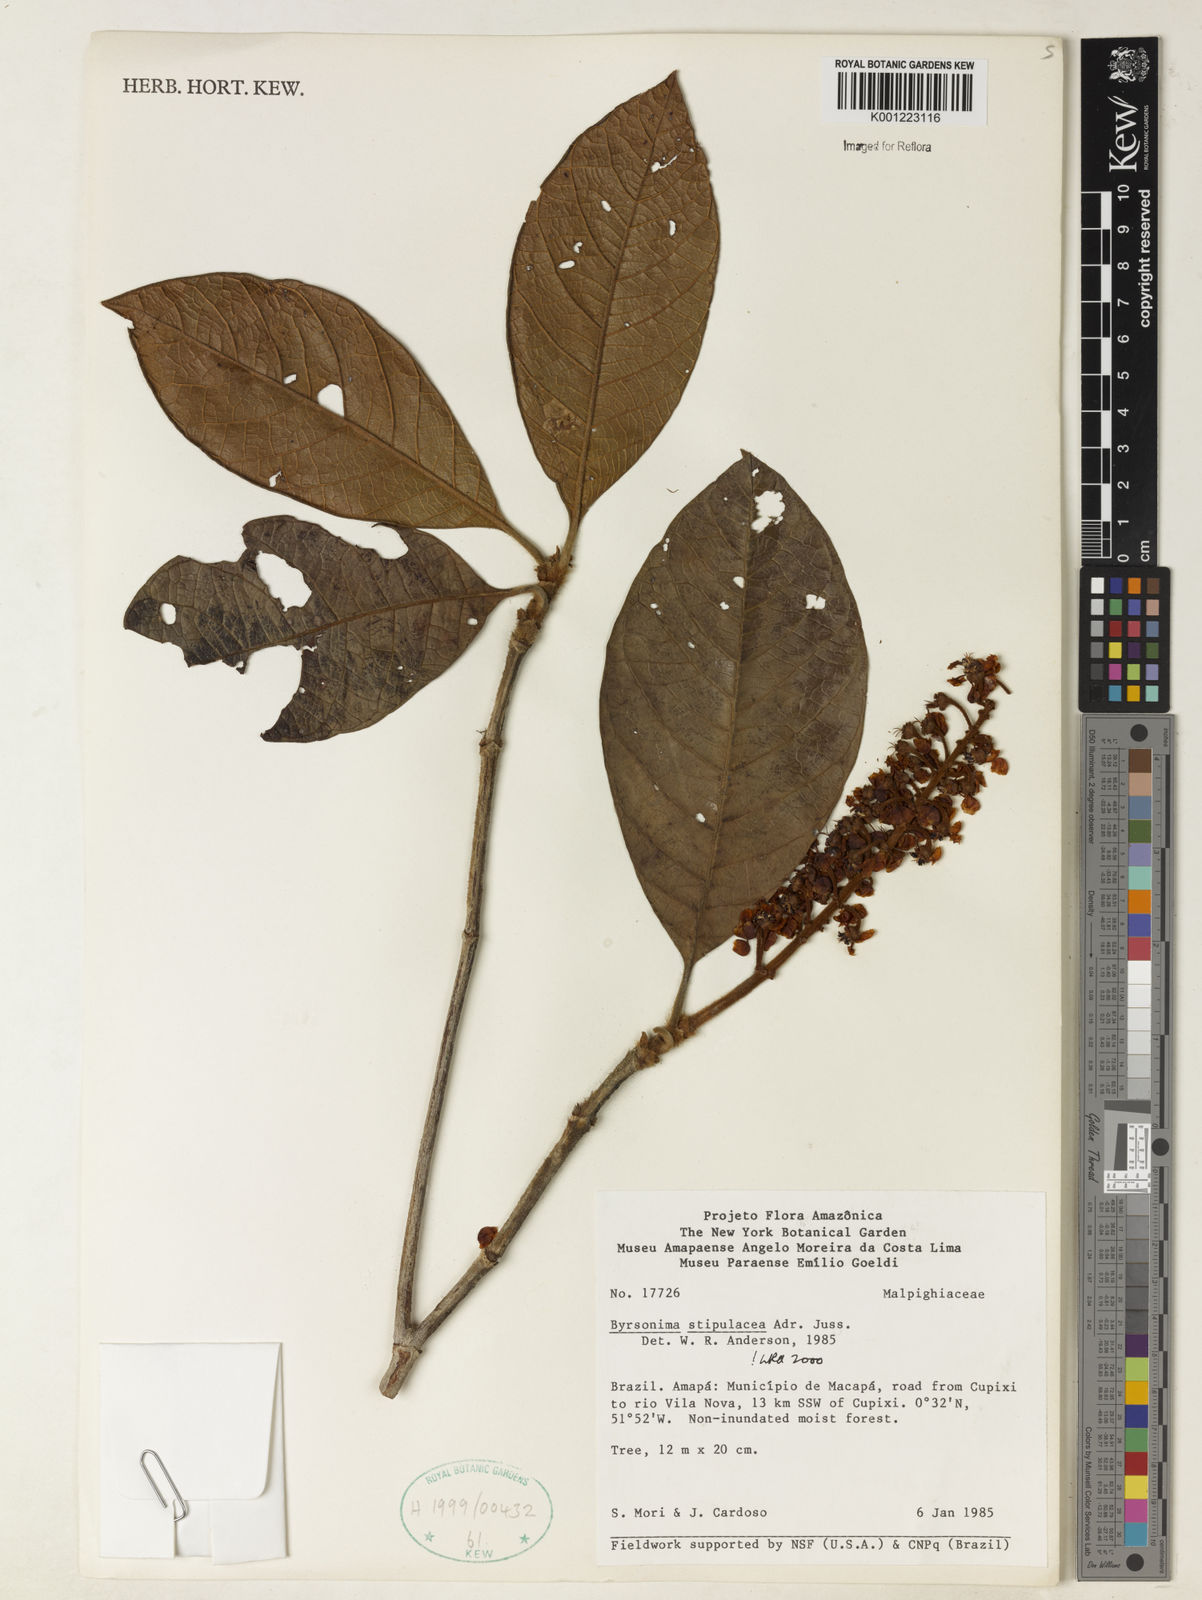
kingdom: Plantae
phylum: Tracheophyta
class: Magnoliopsida
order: Malpighiales
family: Malpighiaceae
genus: Byrsonima
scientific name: Byrsonima stipulacea
